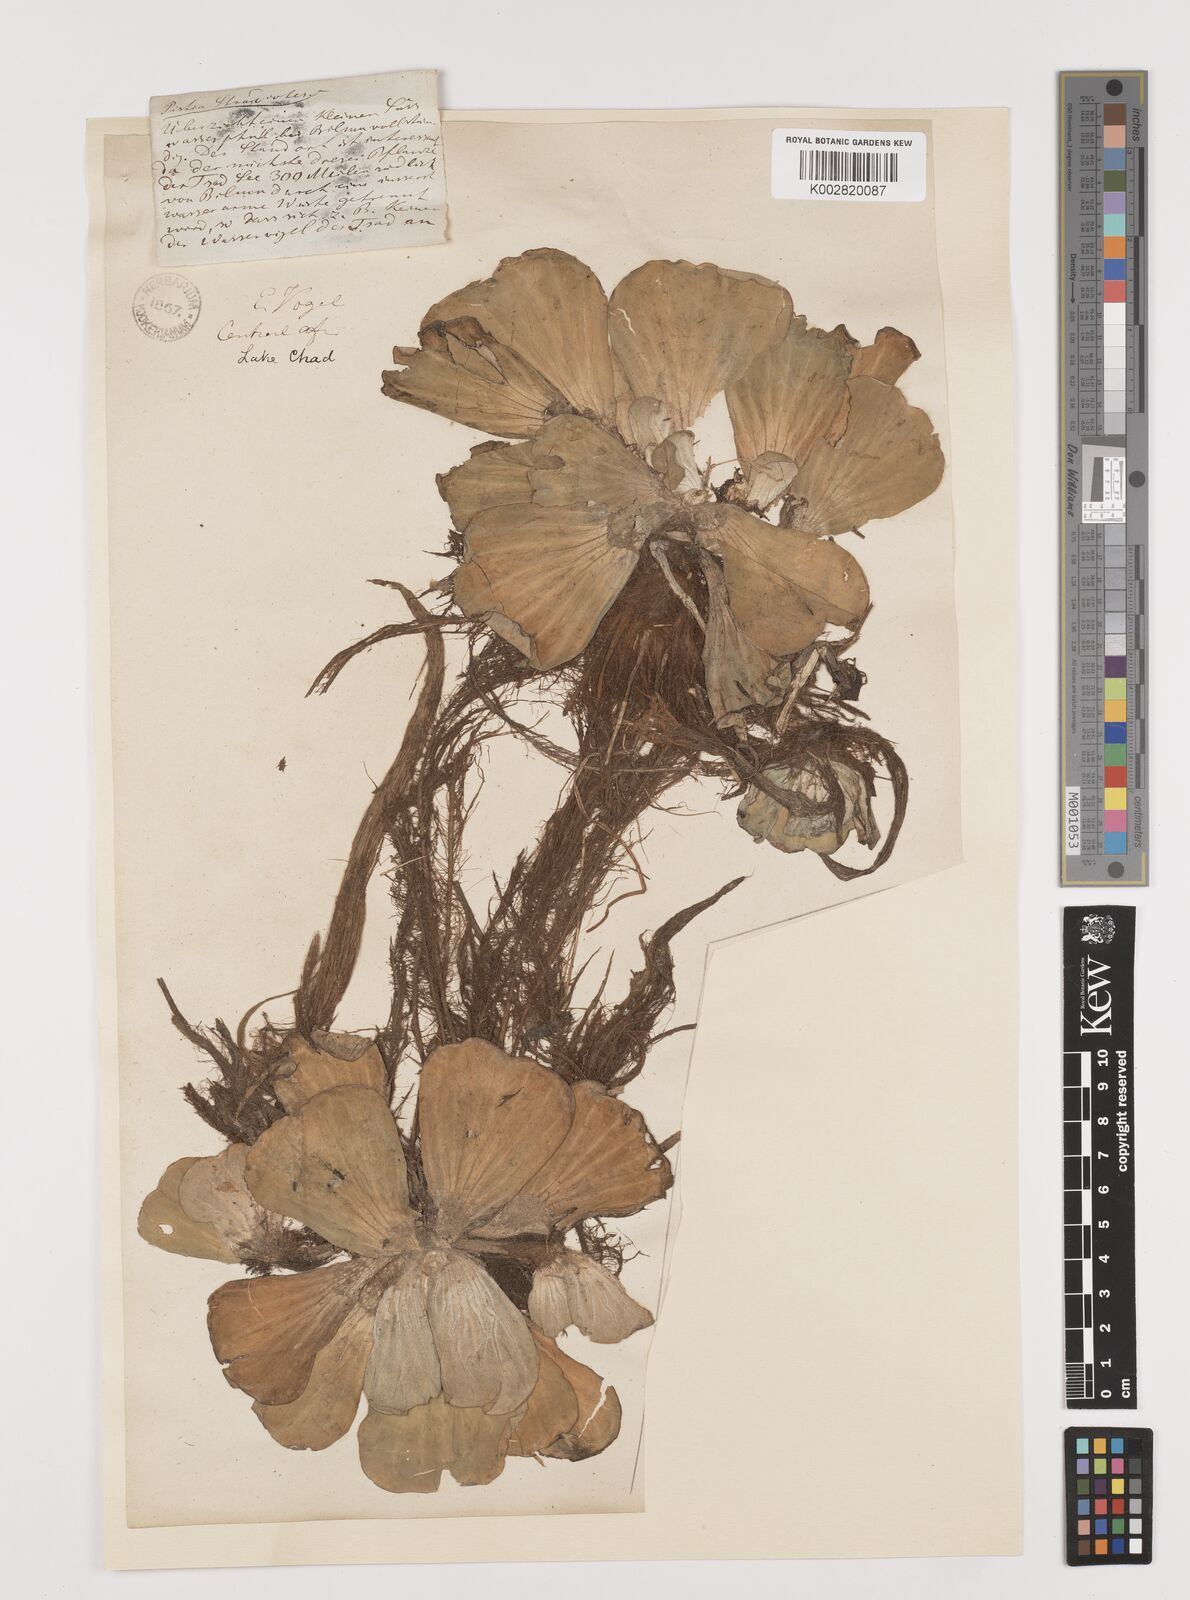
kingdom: Plantae
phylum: Tracheophyta
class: Liliopsida
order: Alismatales
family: Araceae
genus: Pistia
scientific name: Pistia stratiotes
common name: Water lettuce
